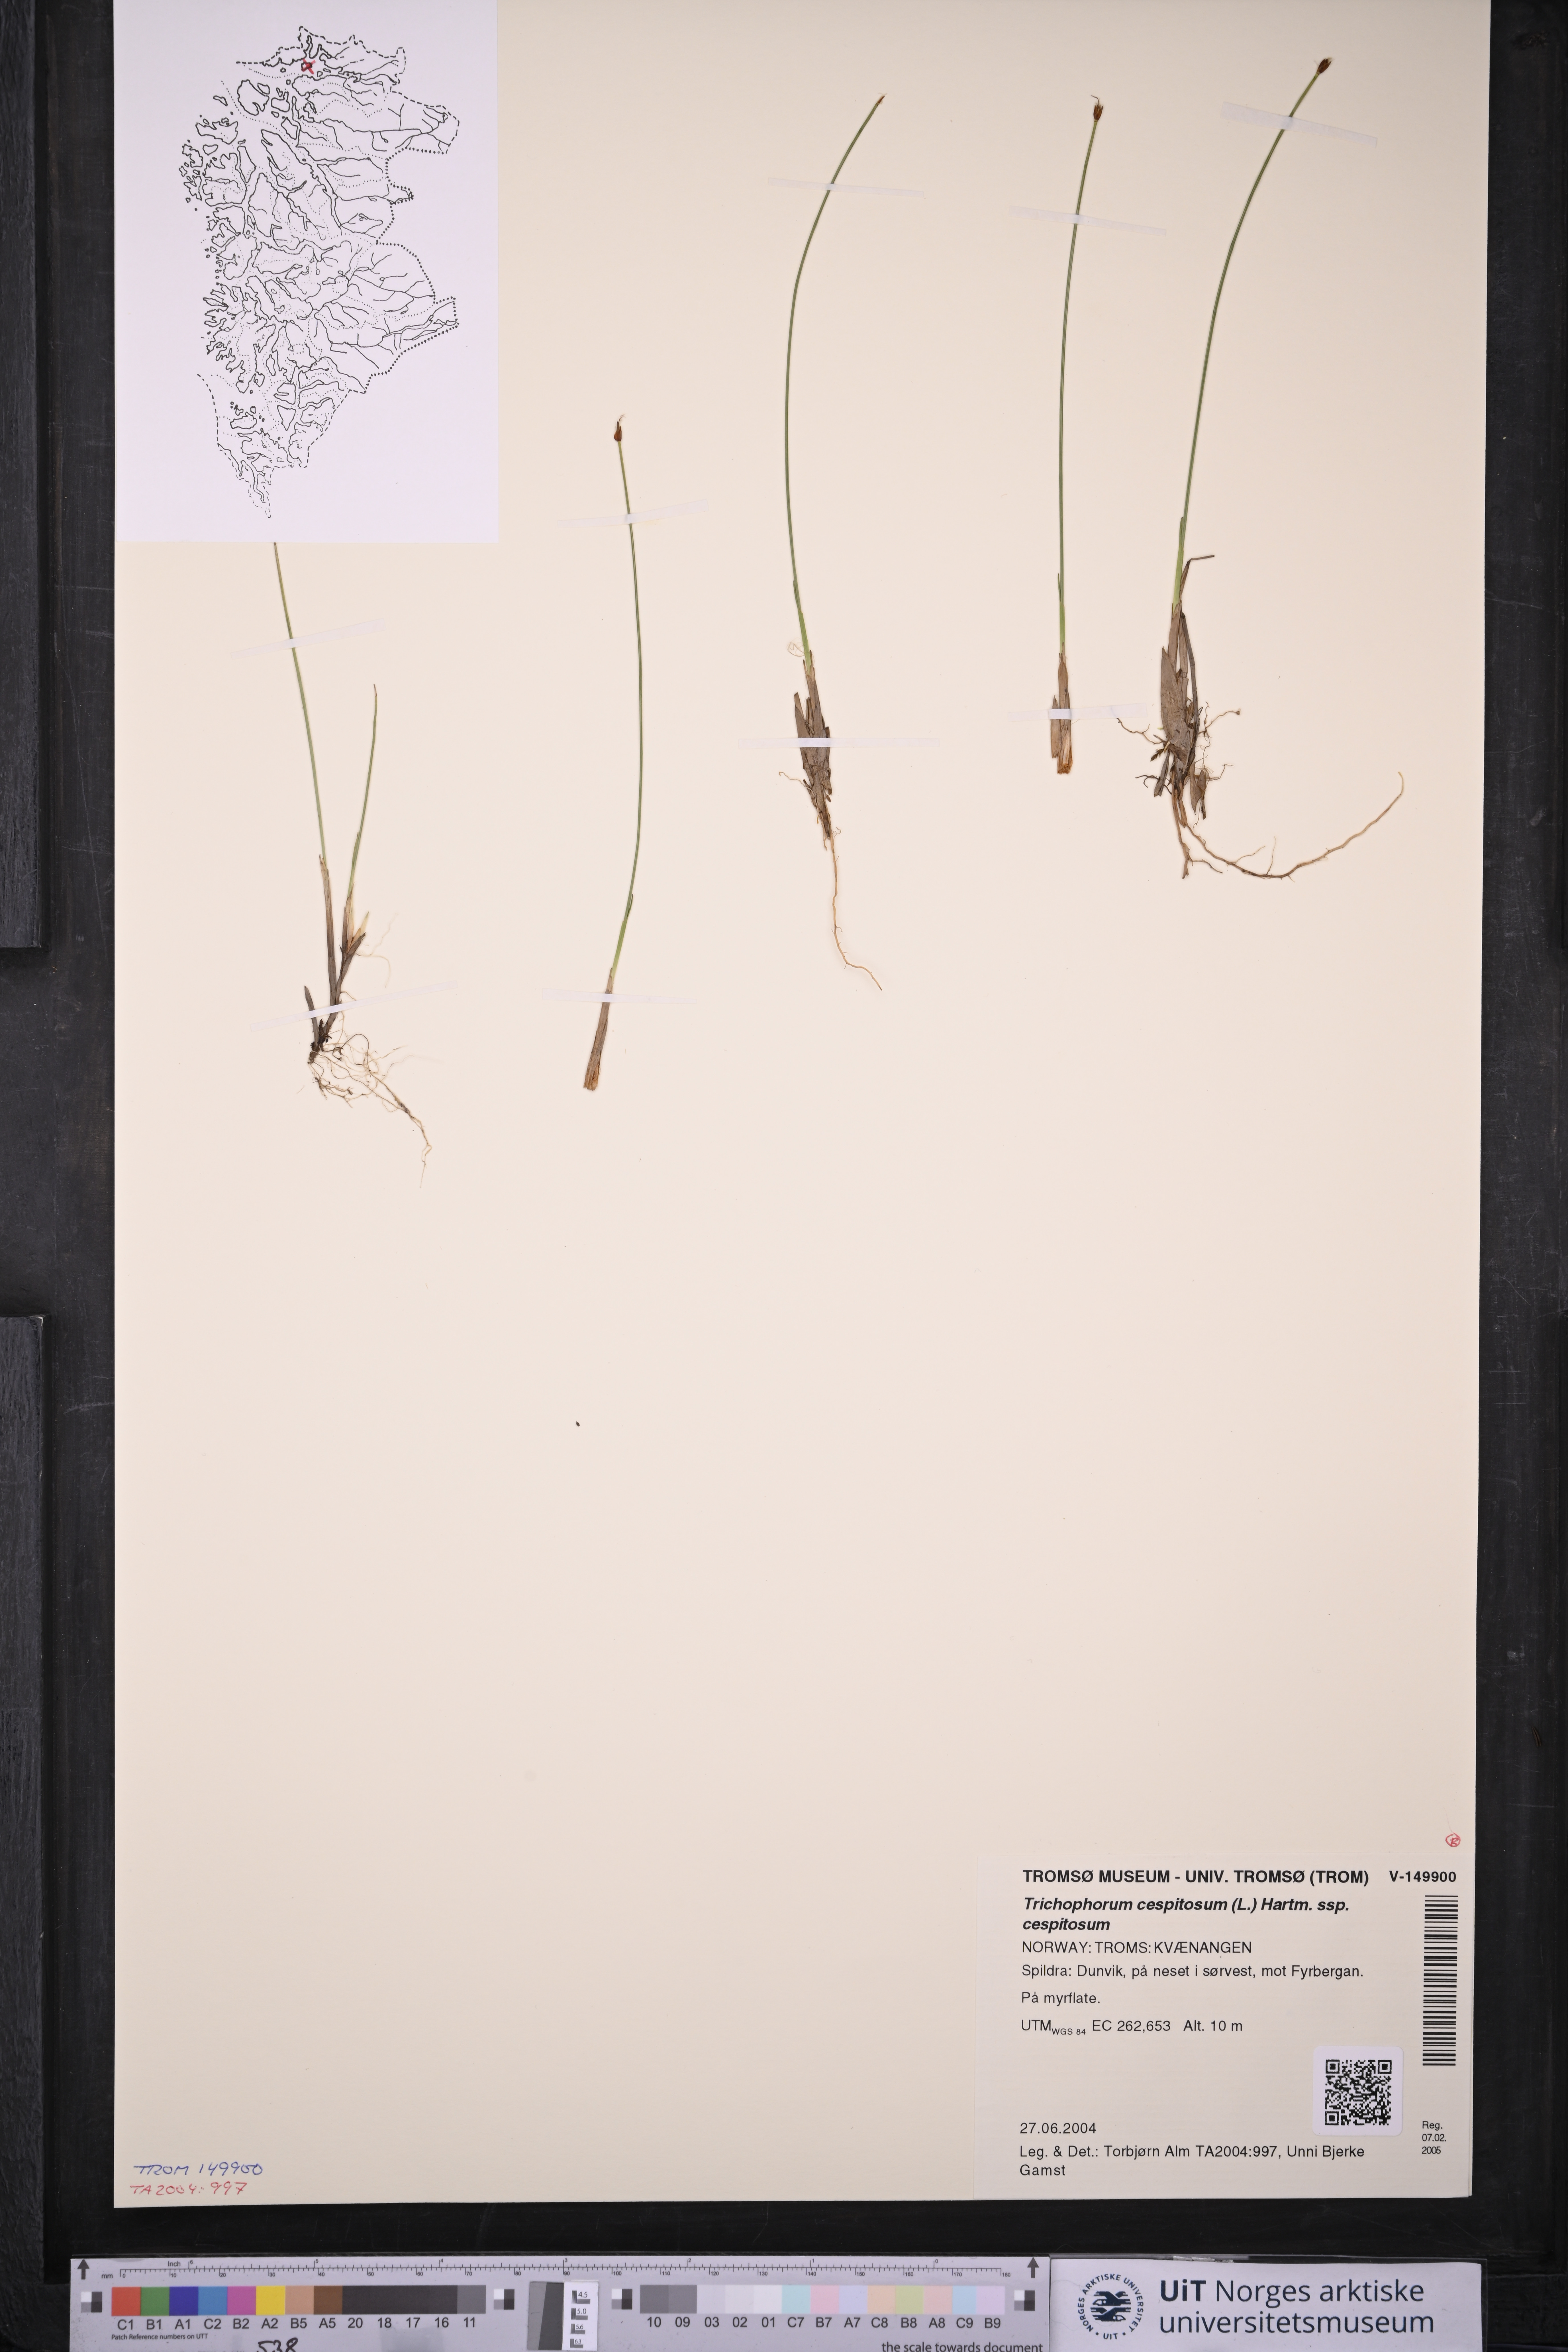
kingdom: Plantae
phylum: Tracheophyta
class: Liliopsida
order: Poales
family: Cyperaceae
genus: Trichophorum
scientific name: Trichophorum cespitosum
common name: Cespitose bulrush
